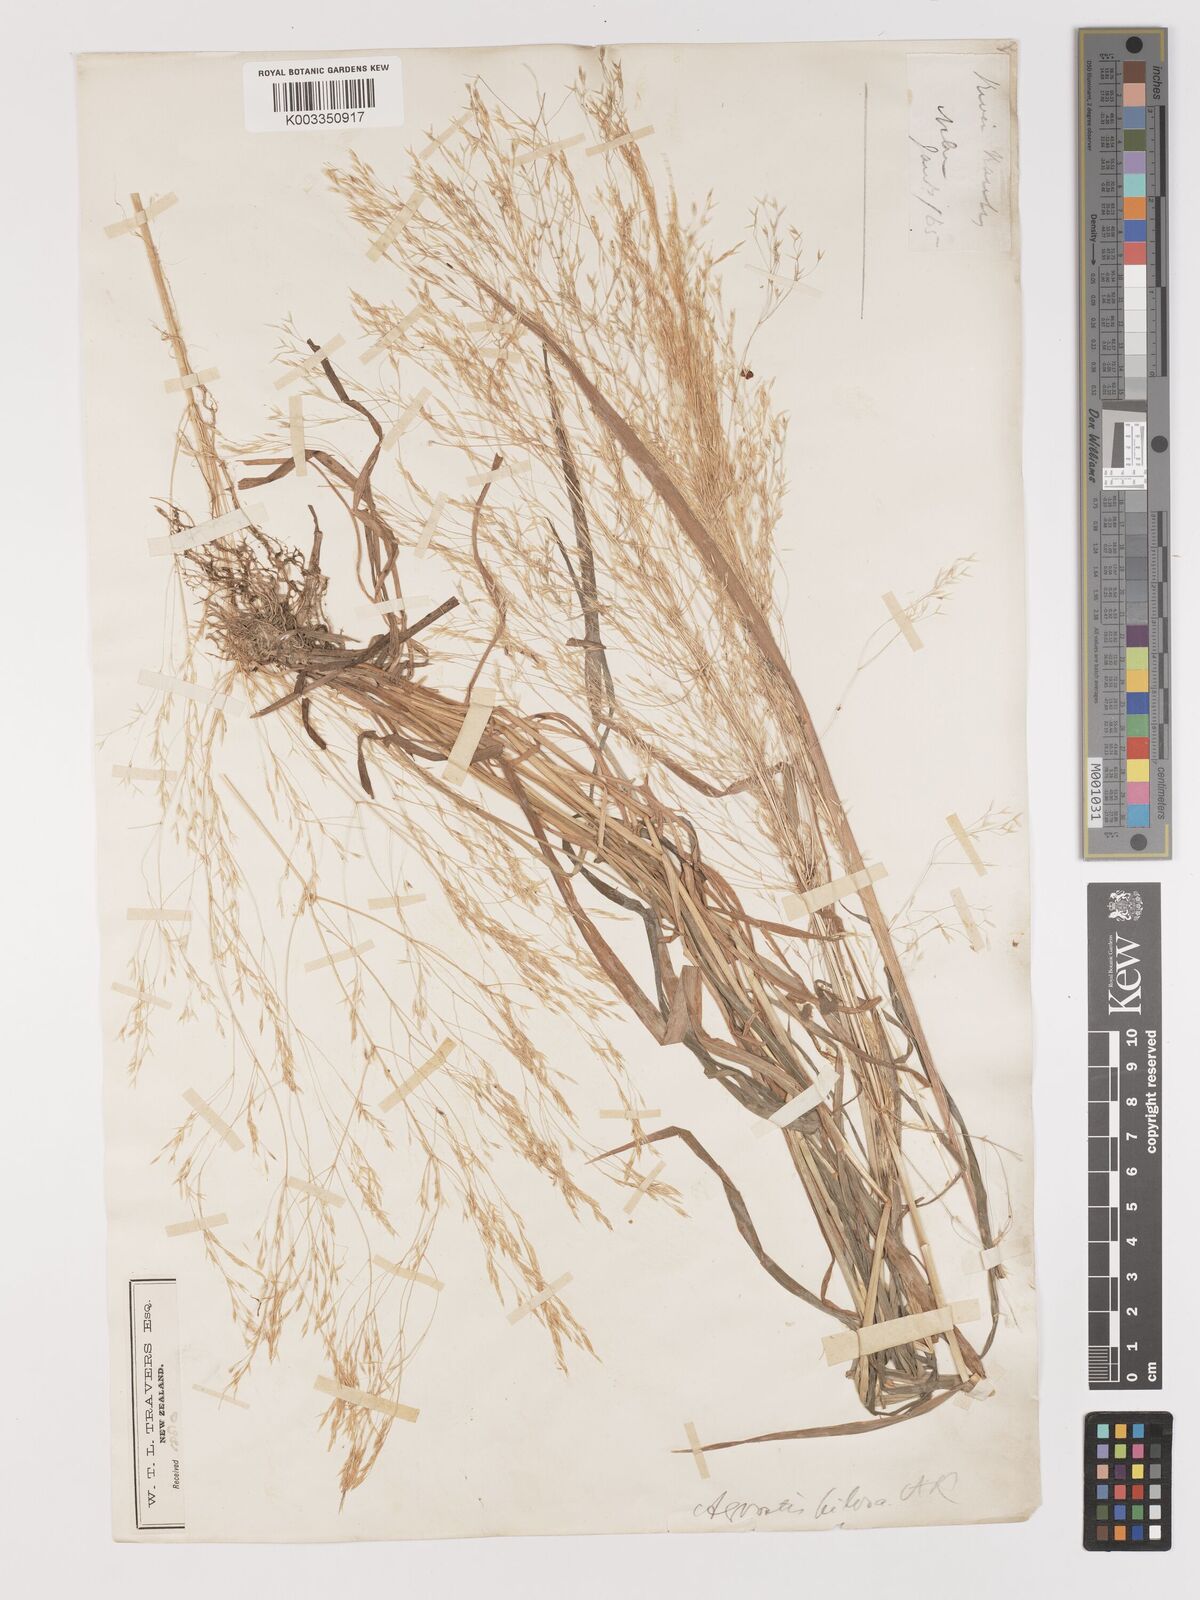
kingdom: Plantae
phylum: Tracheophyta
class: Liliopsida
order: Poales
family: Poaceae
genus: Lachnagrostis
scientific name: Lachnagrostis pilosa
